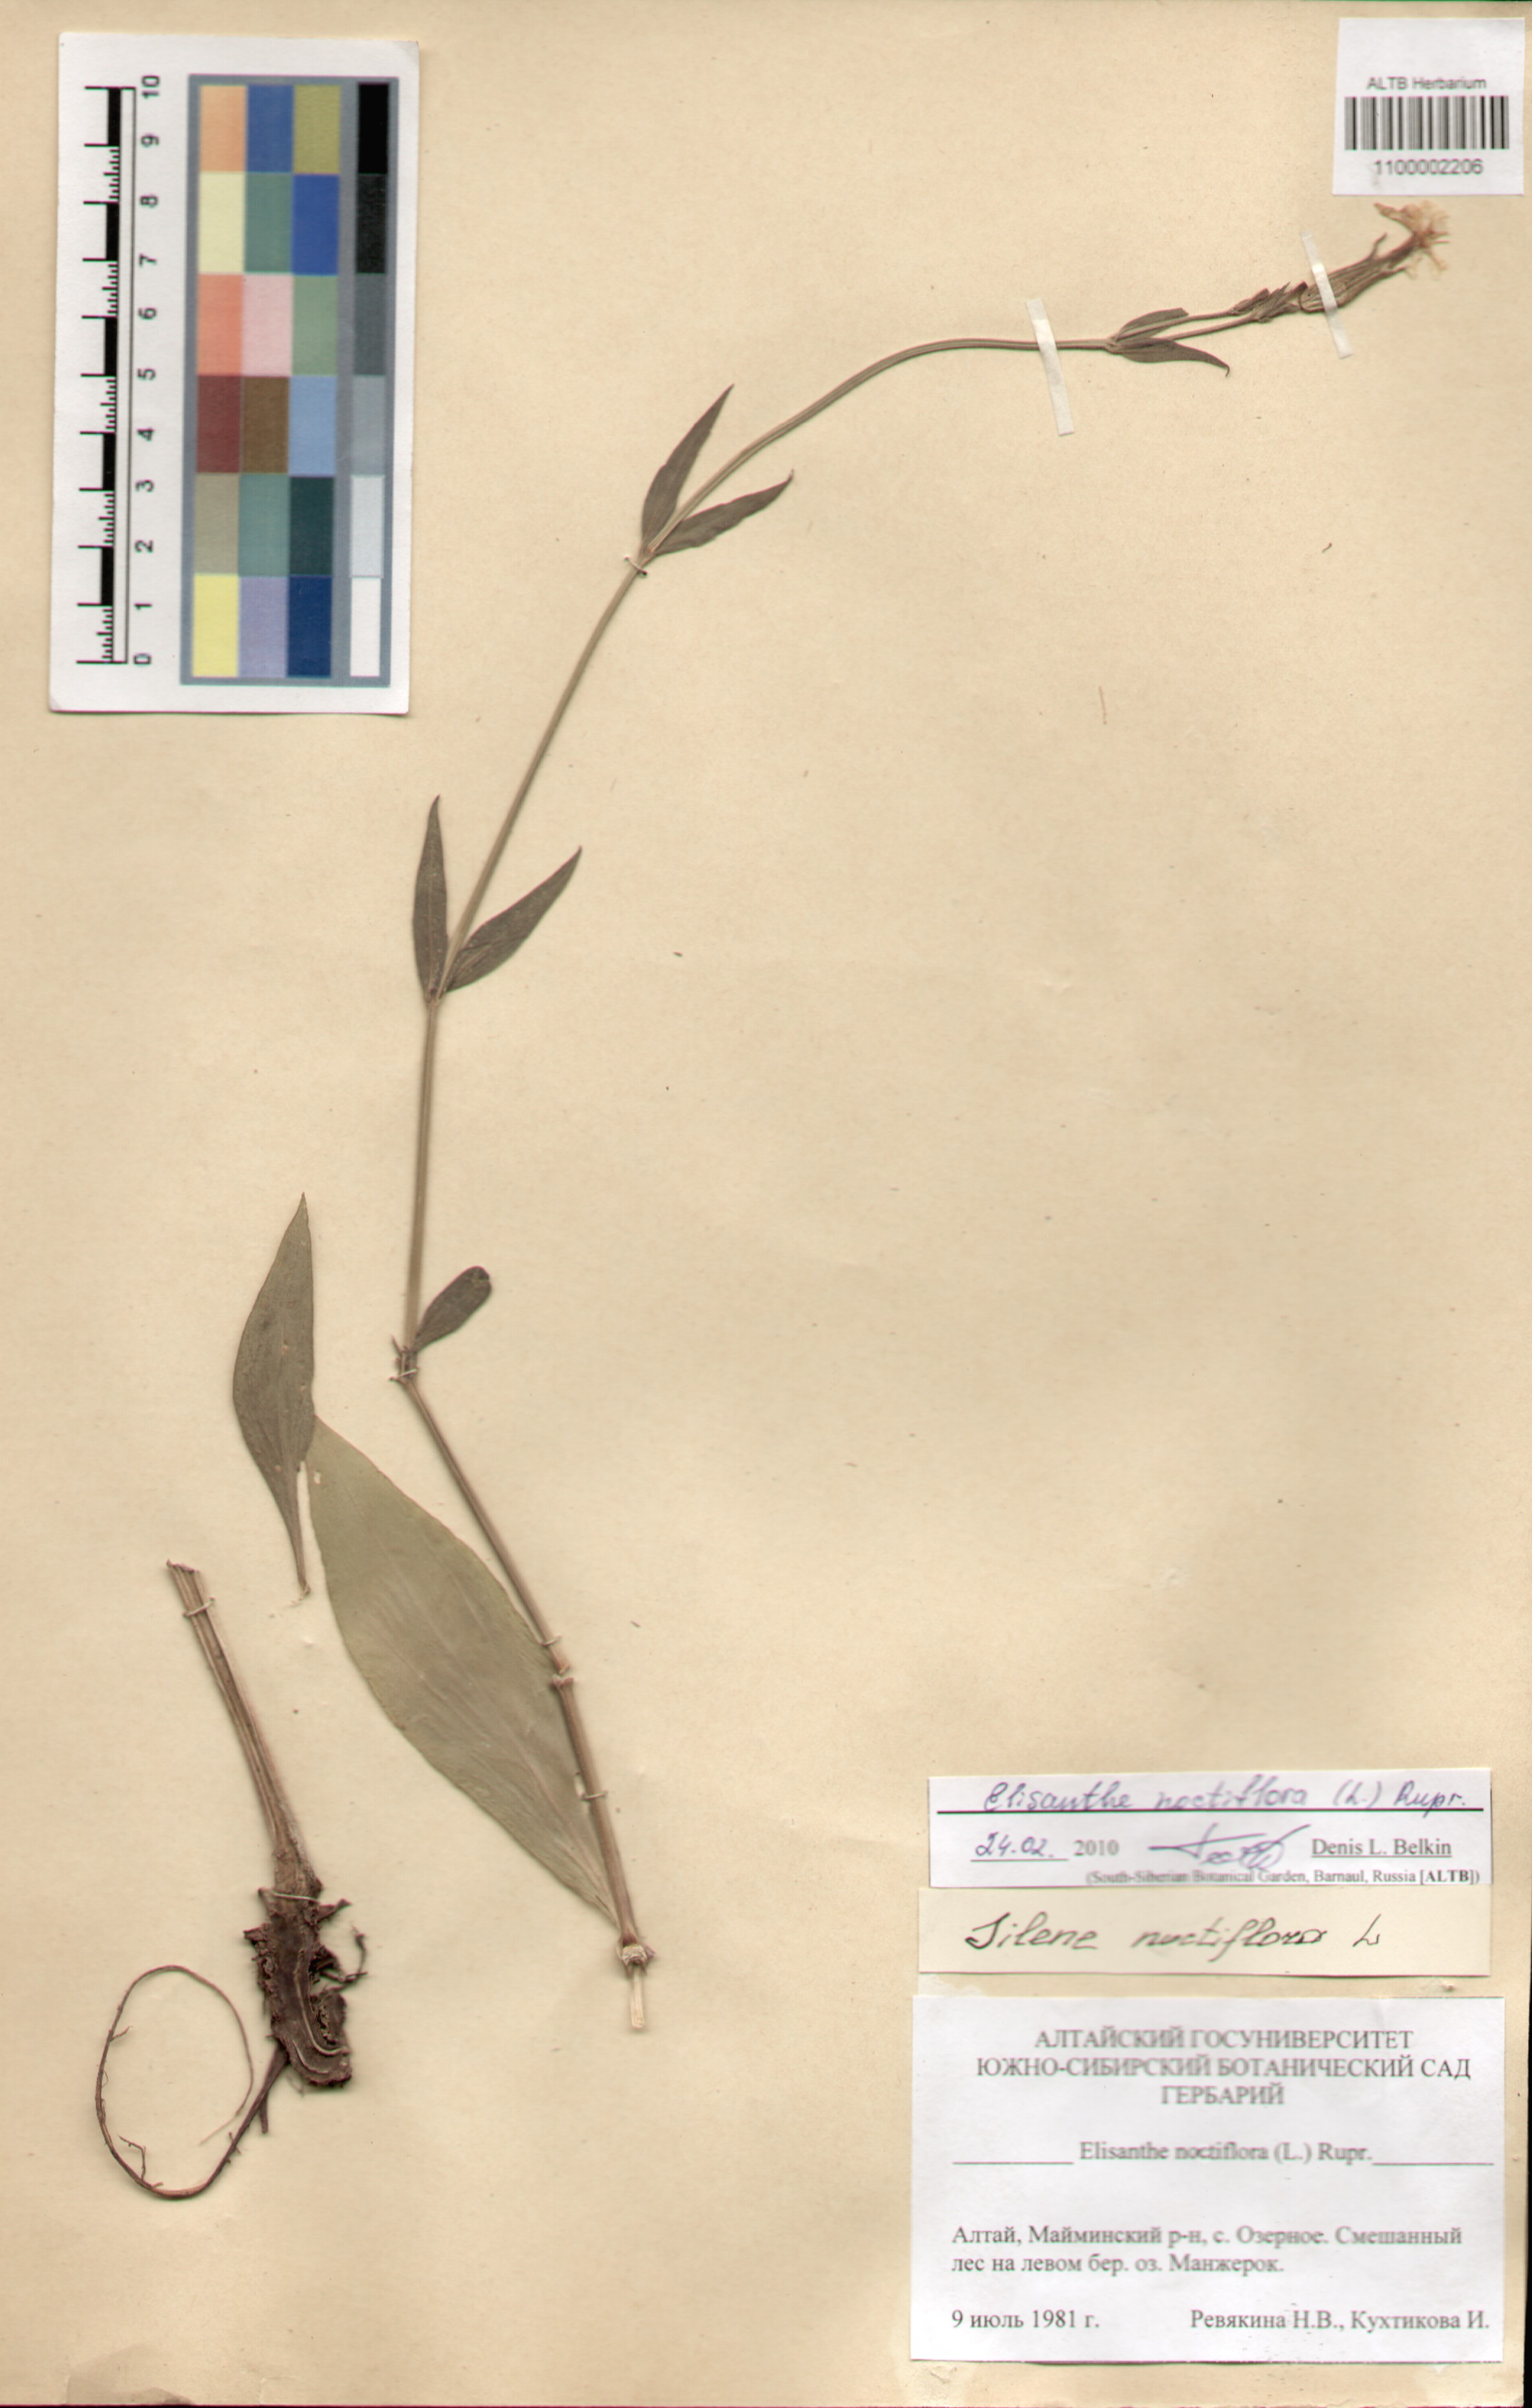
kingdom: Plantae
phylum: Tracheophyta
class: Magnoliopsida
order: Caryophyllales
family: Caryophyllaceae
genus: Silene
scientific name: Silene noctiflora
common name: Night-flowering catchfly
